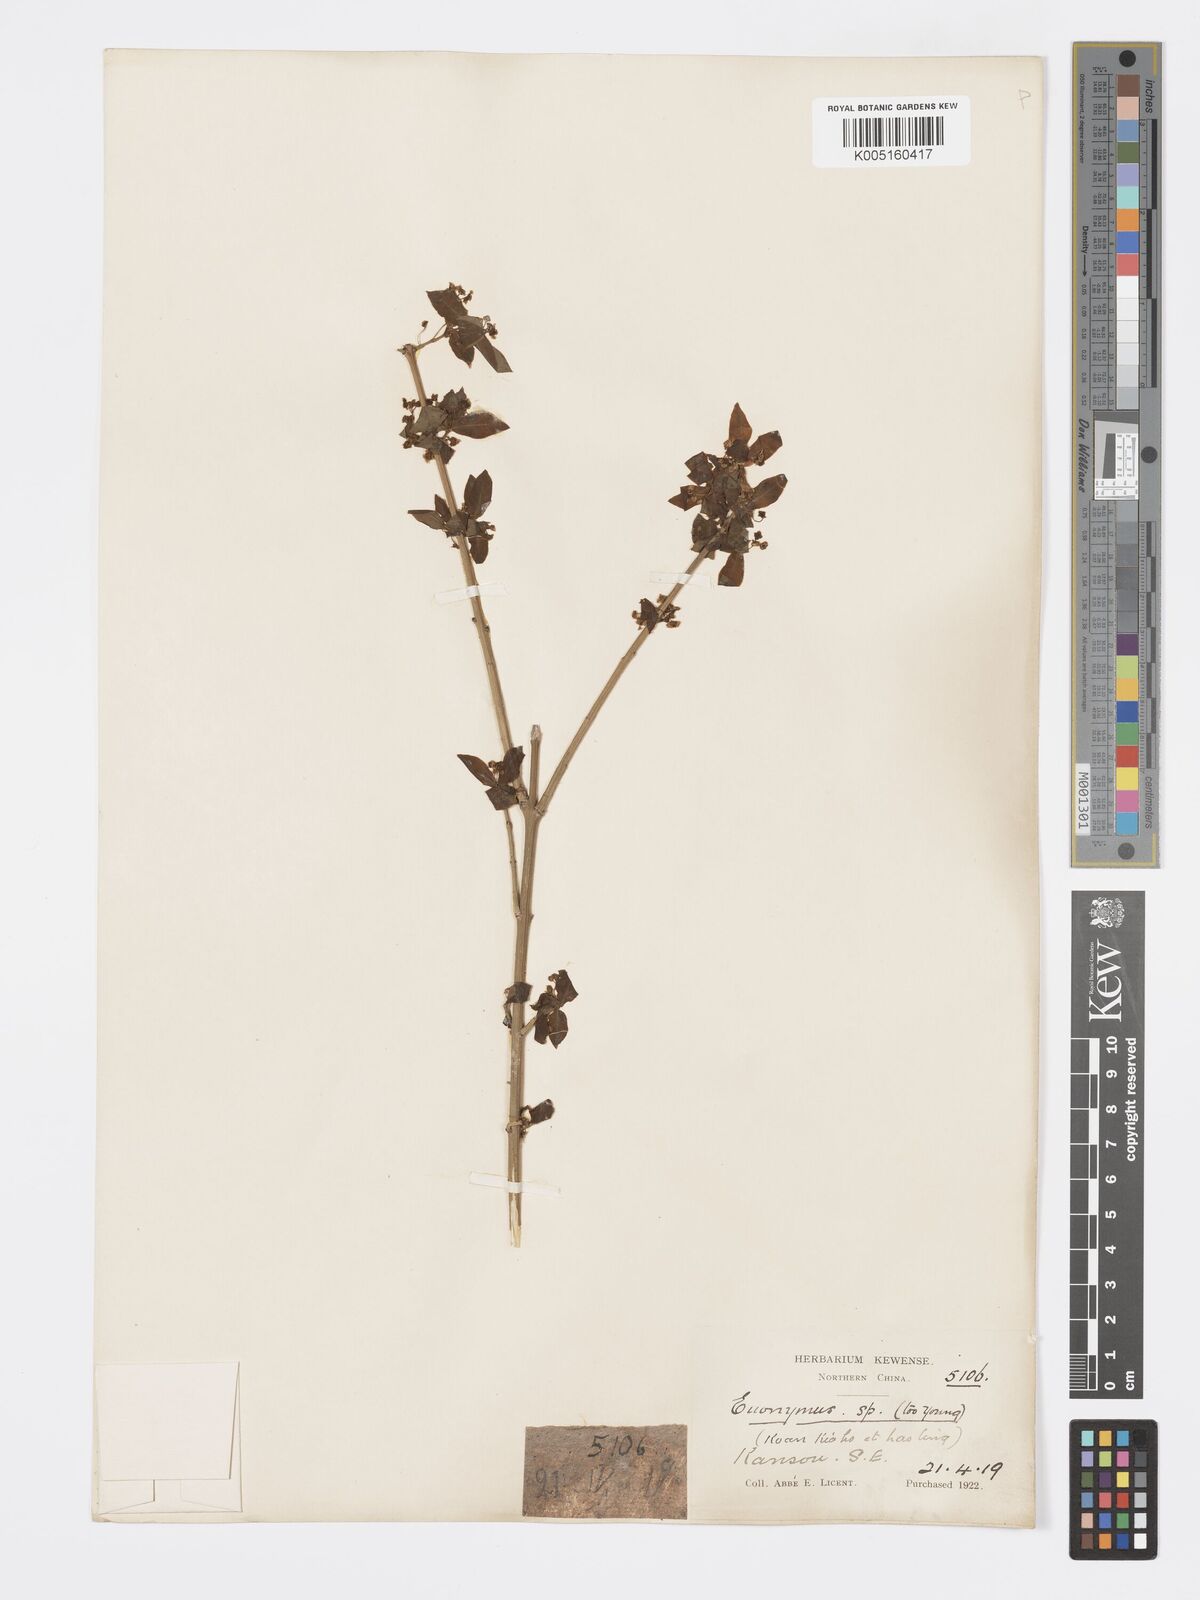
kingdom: Plantae
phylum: Tracheophyta
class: Magnoliopsida
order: Celastrales
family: Celastraceae
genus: Euonymus
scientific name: Euonymus
